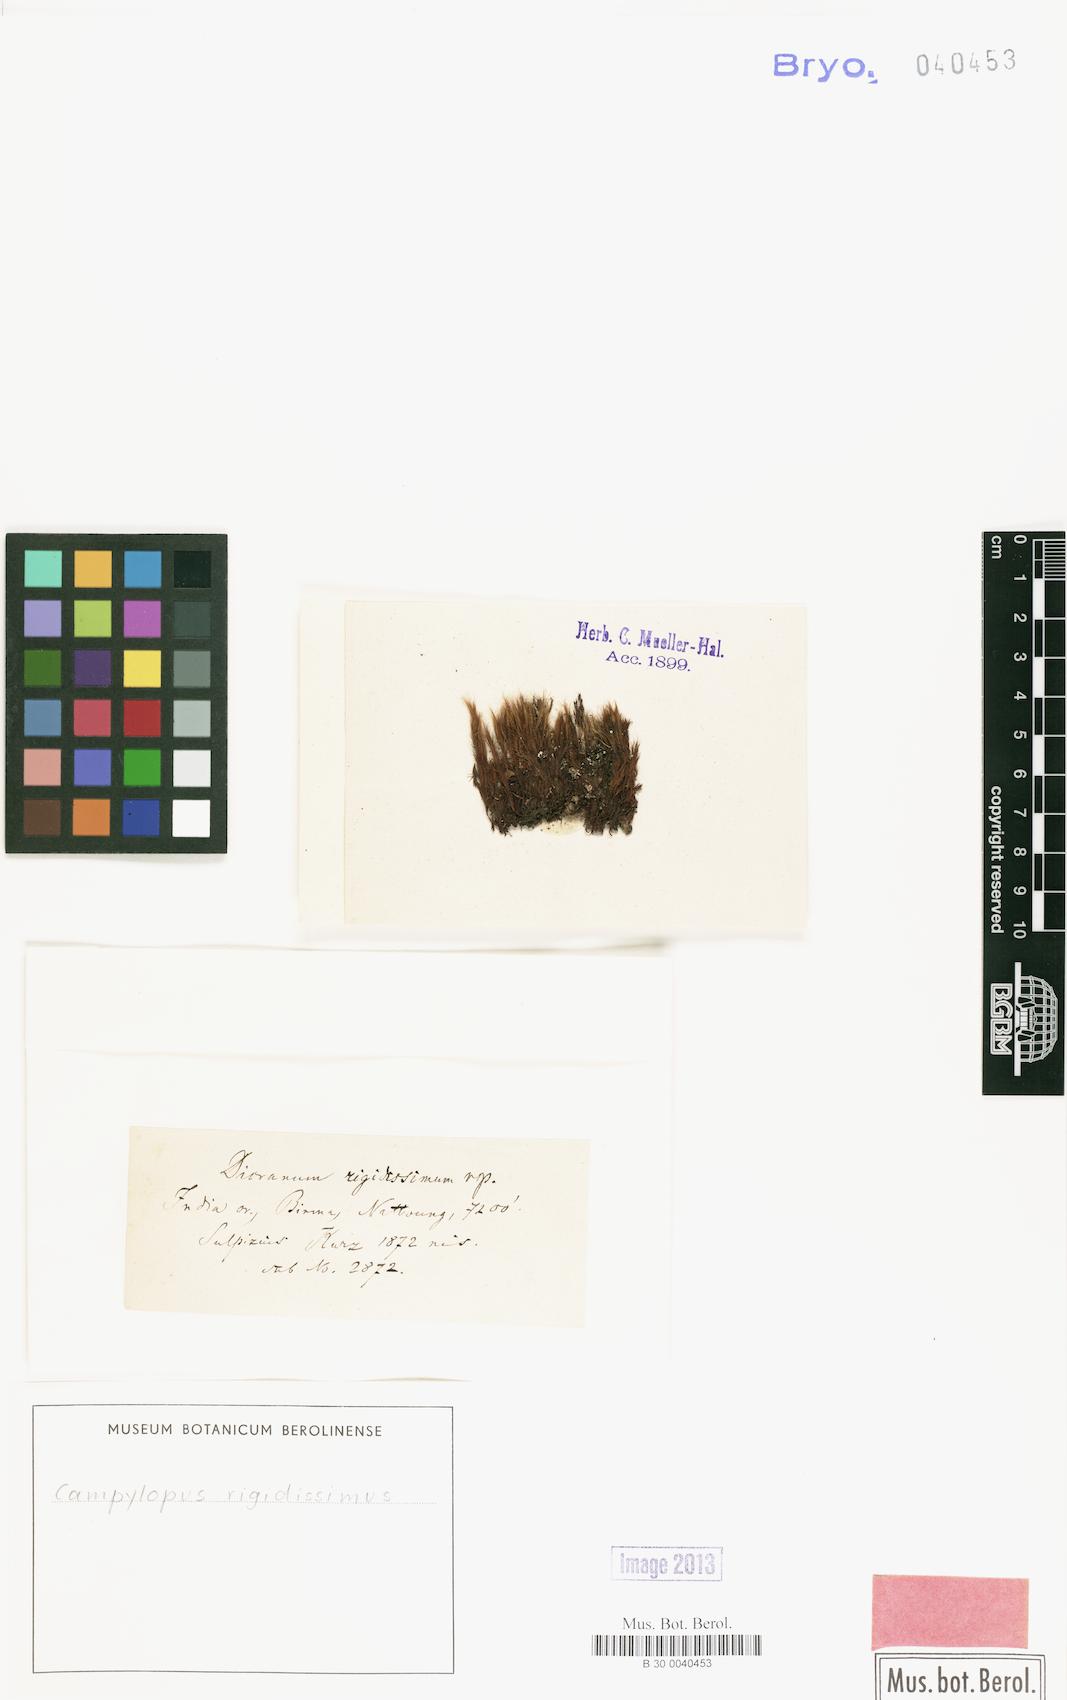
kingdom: Plantae
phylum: Bryophyta
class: Bryopsida
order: Dicranales
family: Dicranaceae
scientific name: Dicranaceae
